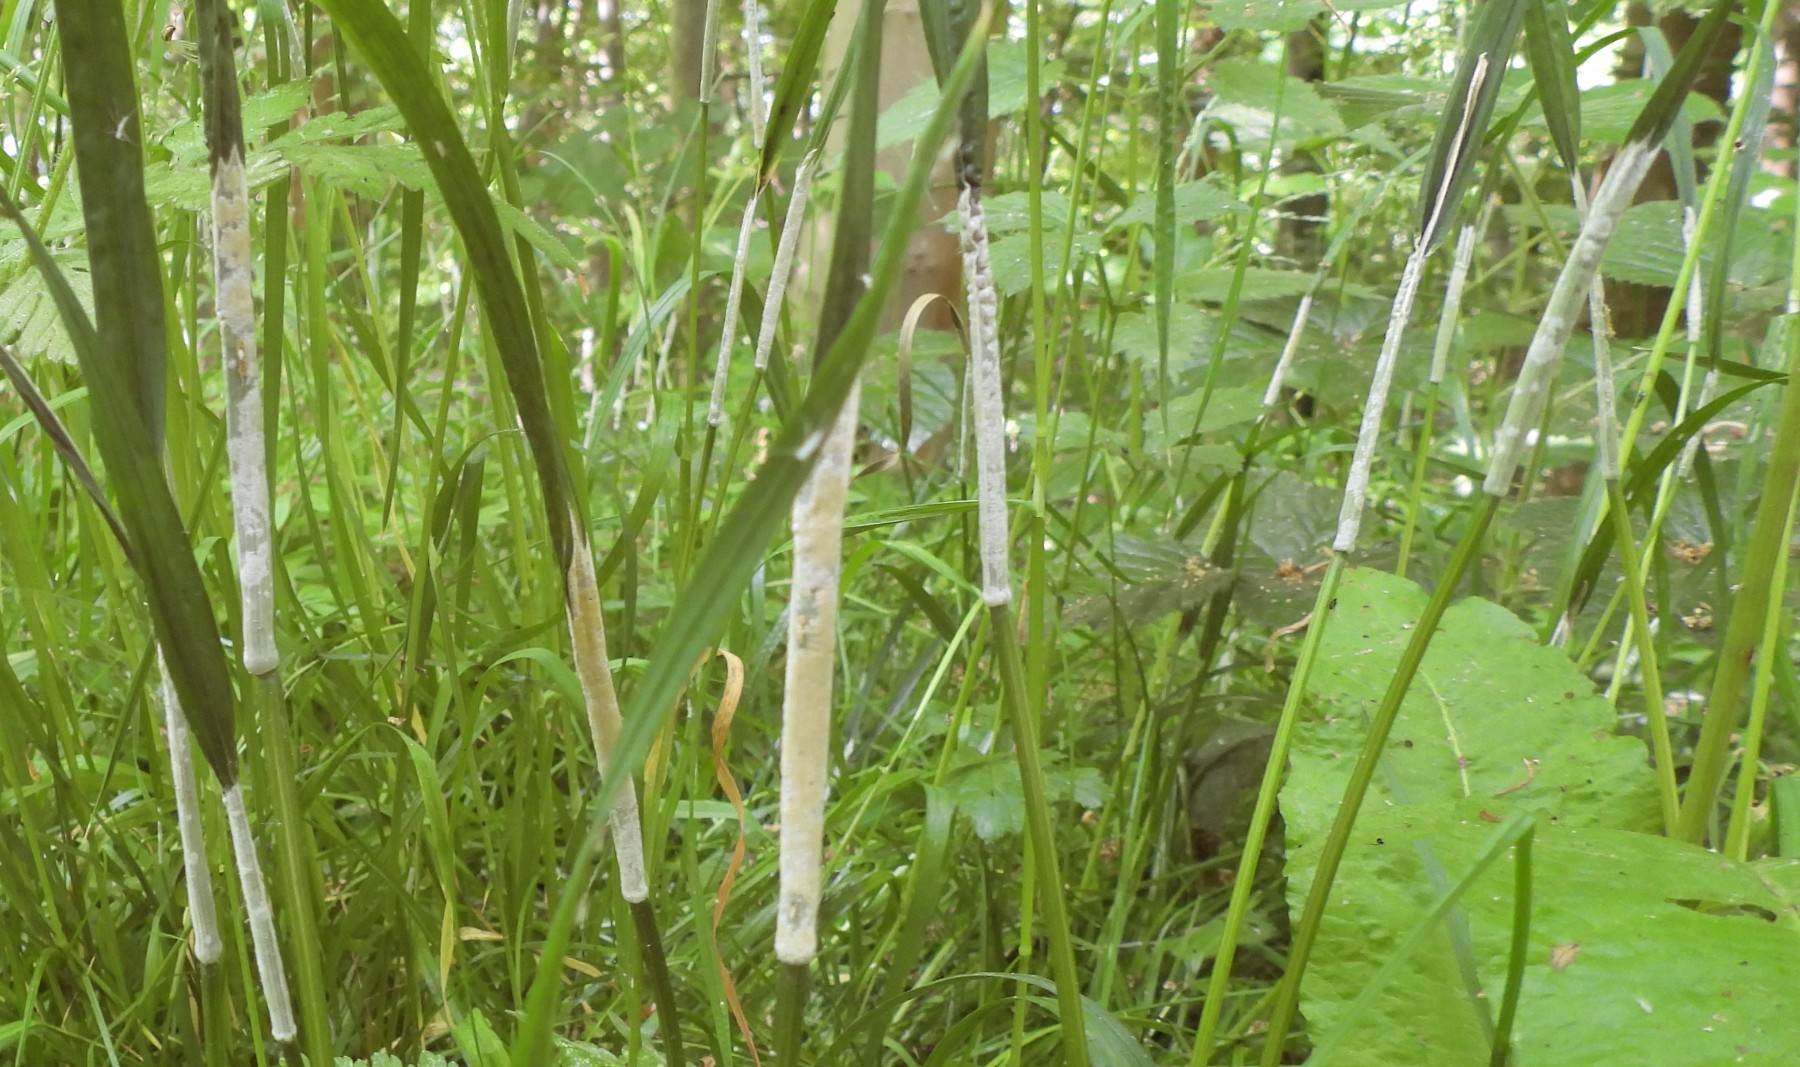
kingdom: Fungi
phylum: Ascomycota
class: Sordariomycetes
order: Hypocreales
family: Clavicipitaceae
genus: Epichloe
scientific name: Epichloe typhina
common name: almindelig kernerør
